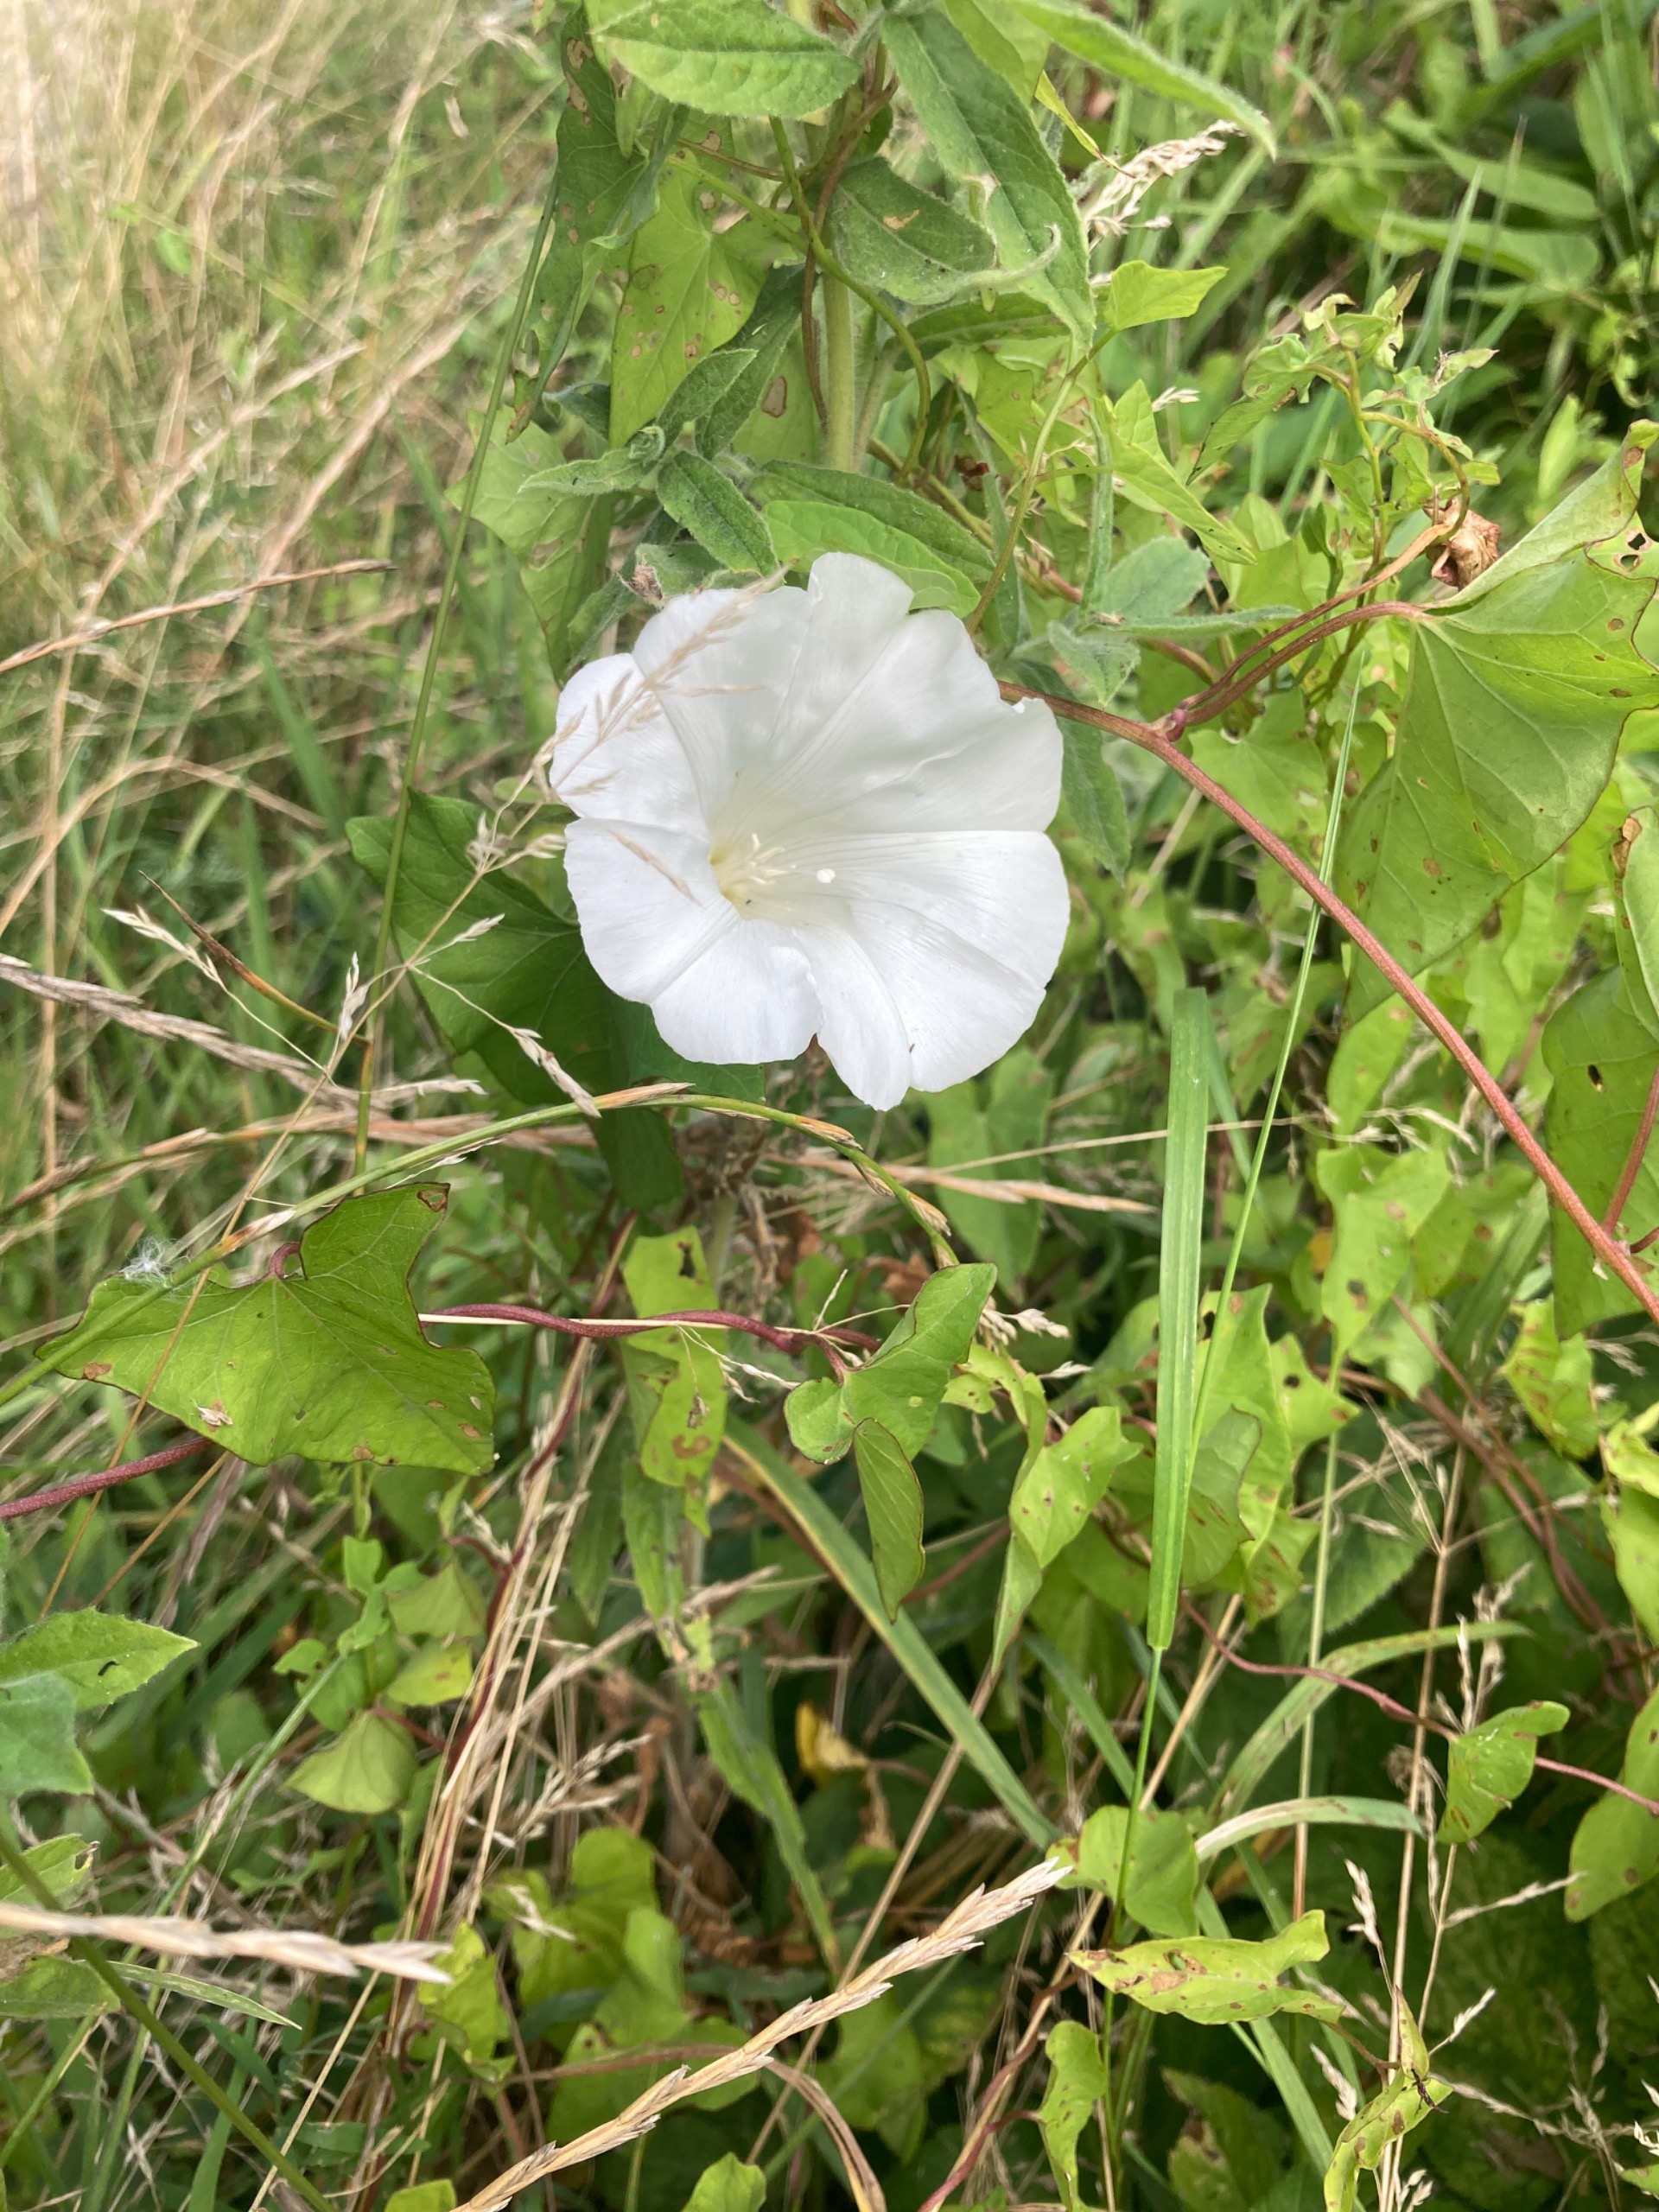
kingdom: Plantae
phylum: Tracheophyta
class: Magnoliopsida
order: Solanales
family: Convolvulaceae
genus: Calystegia
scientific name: Calystegia sepium
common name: Gærde-snerle
